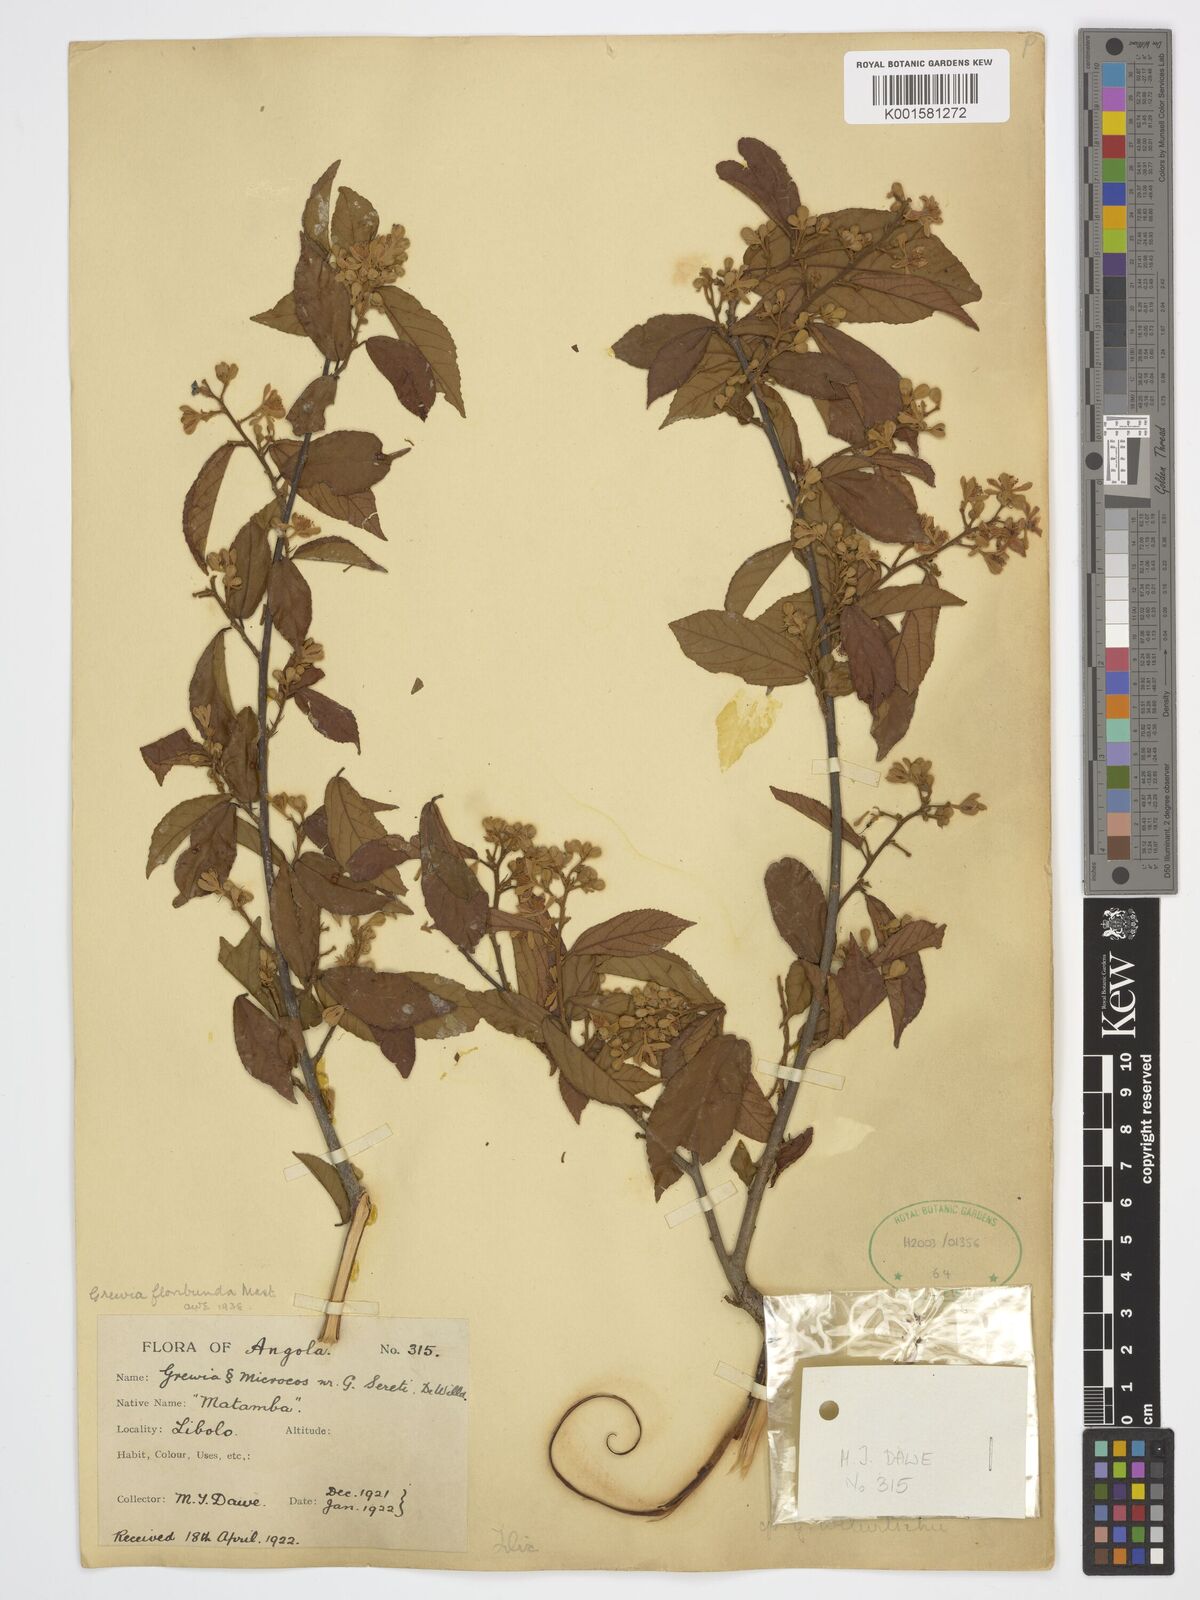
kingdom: Plantae
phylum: Tracheophyta
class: Magnoliopsida
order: Malvales
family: Malvaceae
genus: Microcos
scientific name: Microcos floribunda
